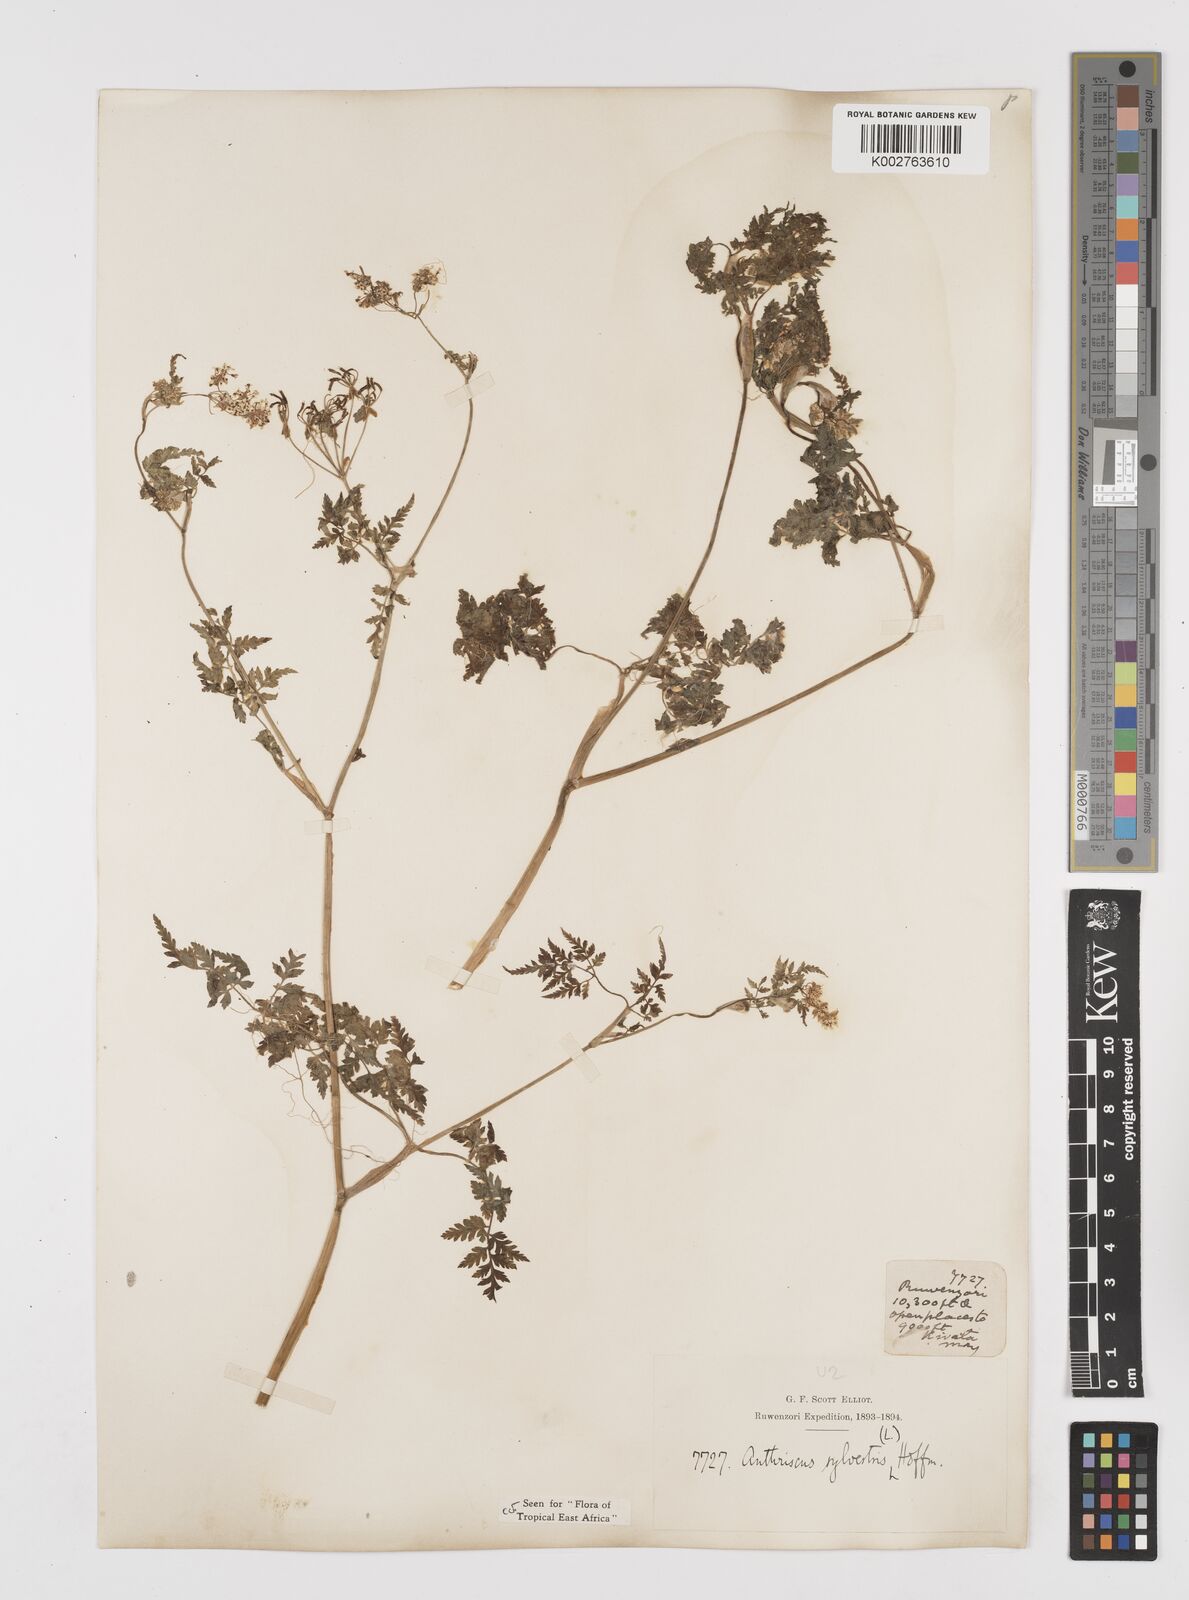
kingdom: Plantae
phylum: Tracheophyta
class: Magnoliopsida
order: Apiales
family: Apiaceae
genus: Anthriscus
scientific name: Anthriscus sylvestris
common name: Cow parsley
